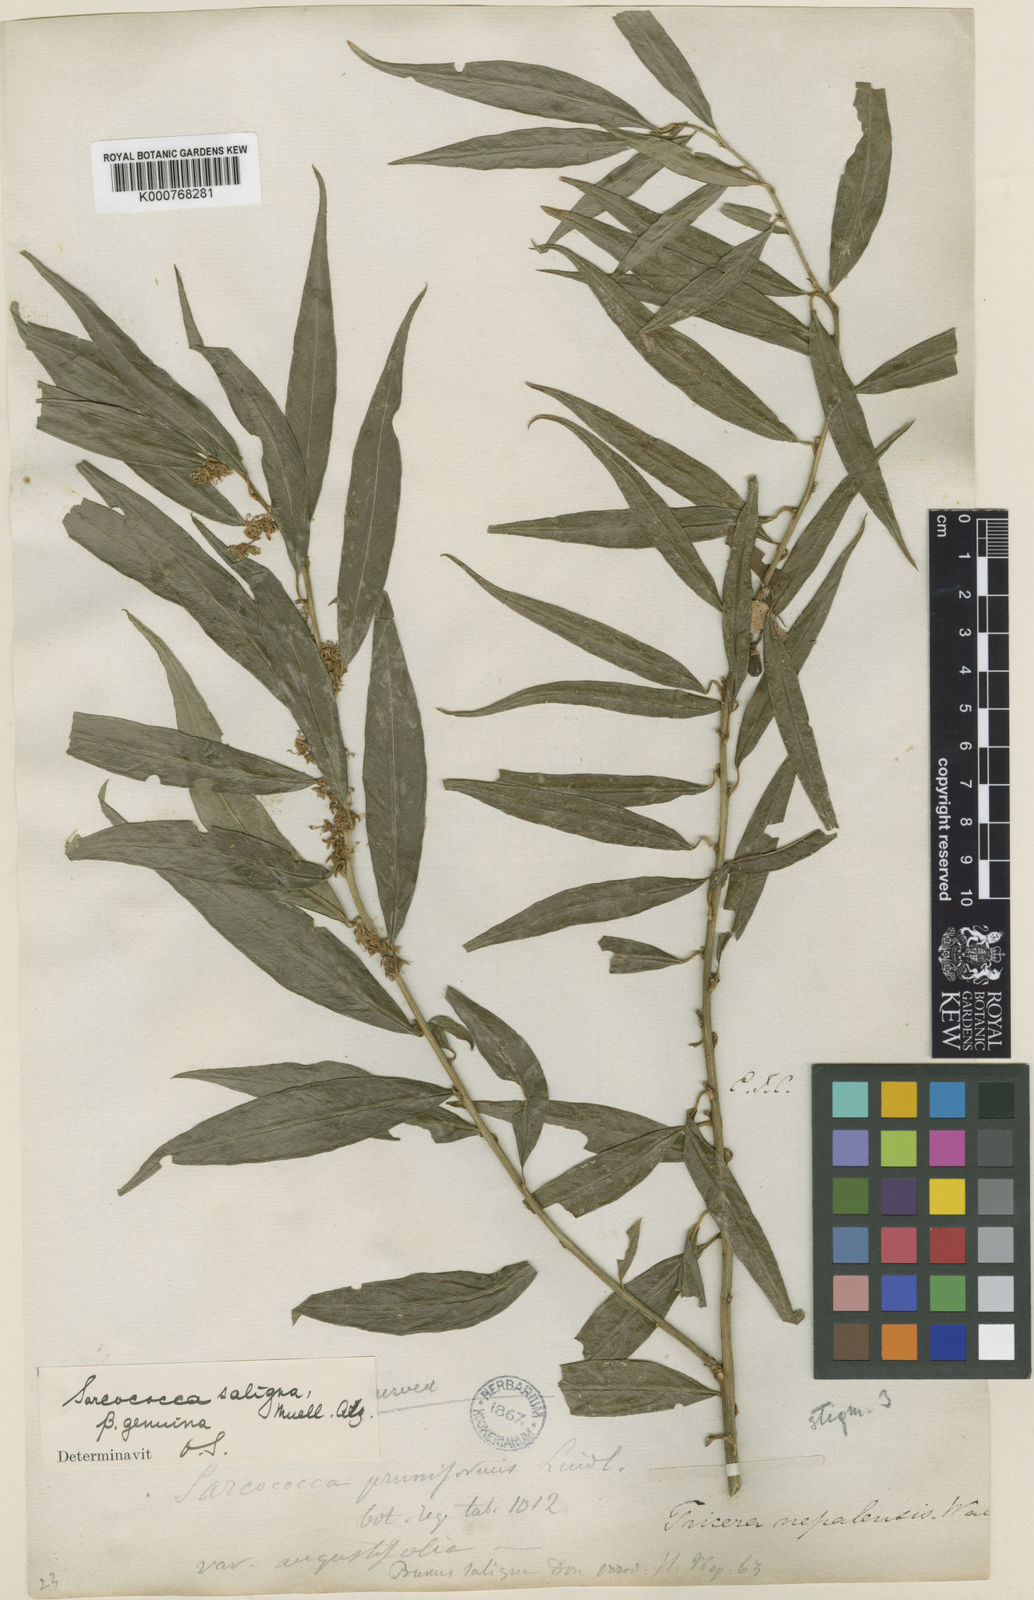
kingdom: Plantae
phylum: Tracheophyta
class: Magnoliopsida
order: Buxales
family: Buxaceae
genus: Sarcococca
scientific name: Sarcococca
